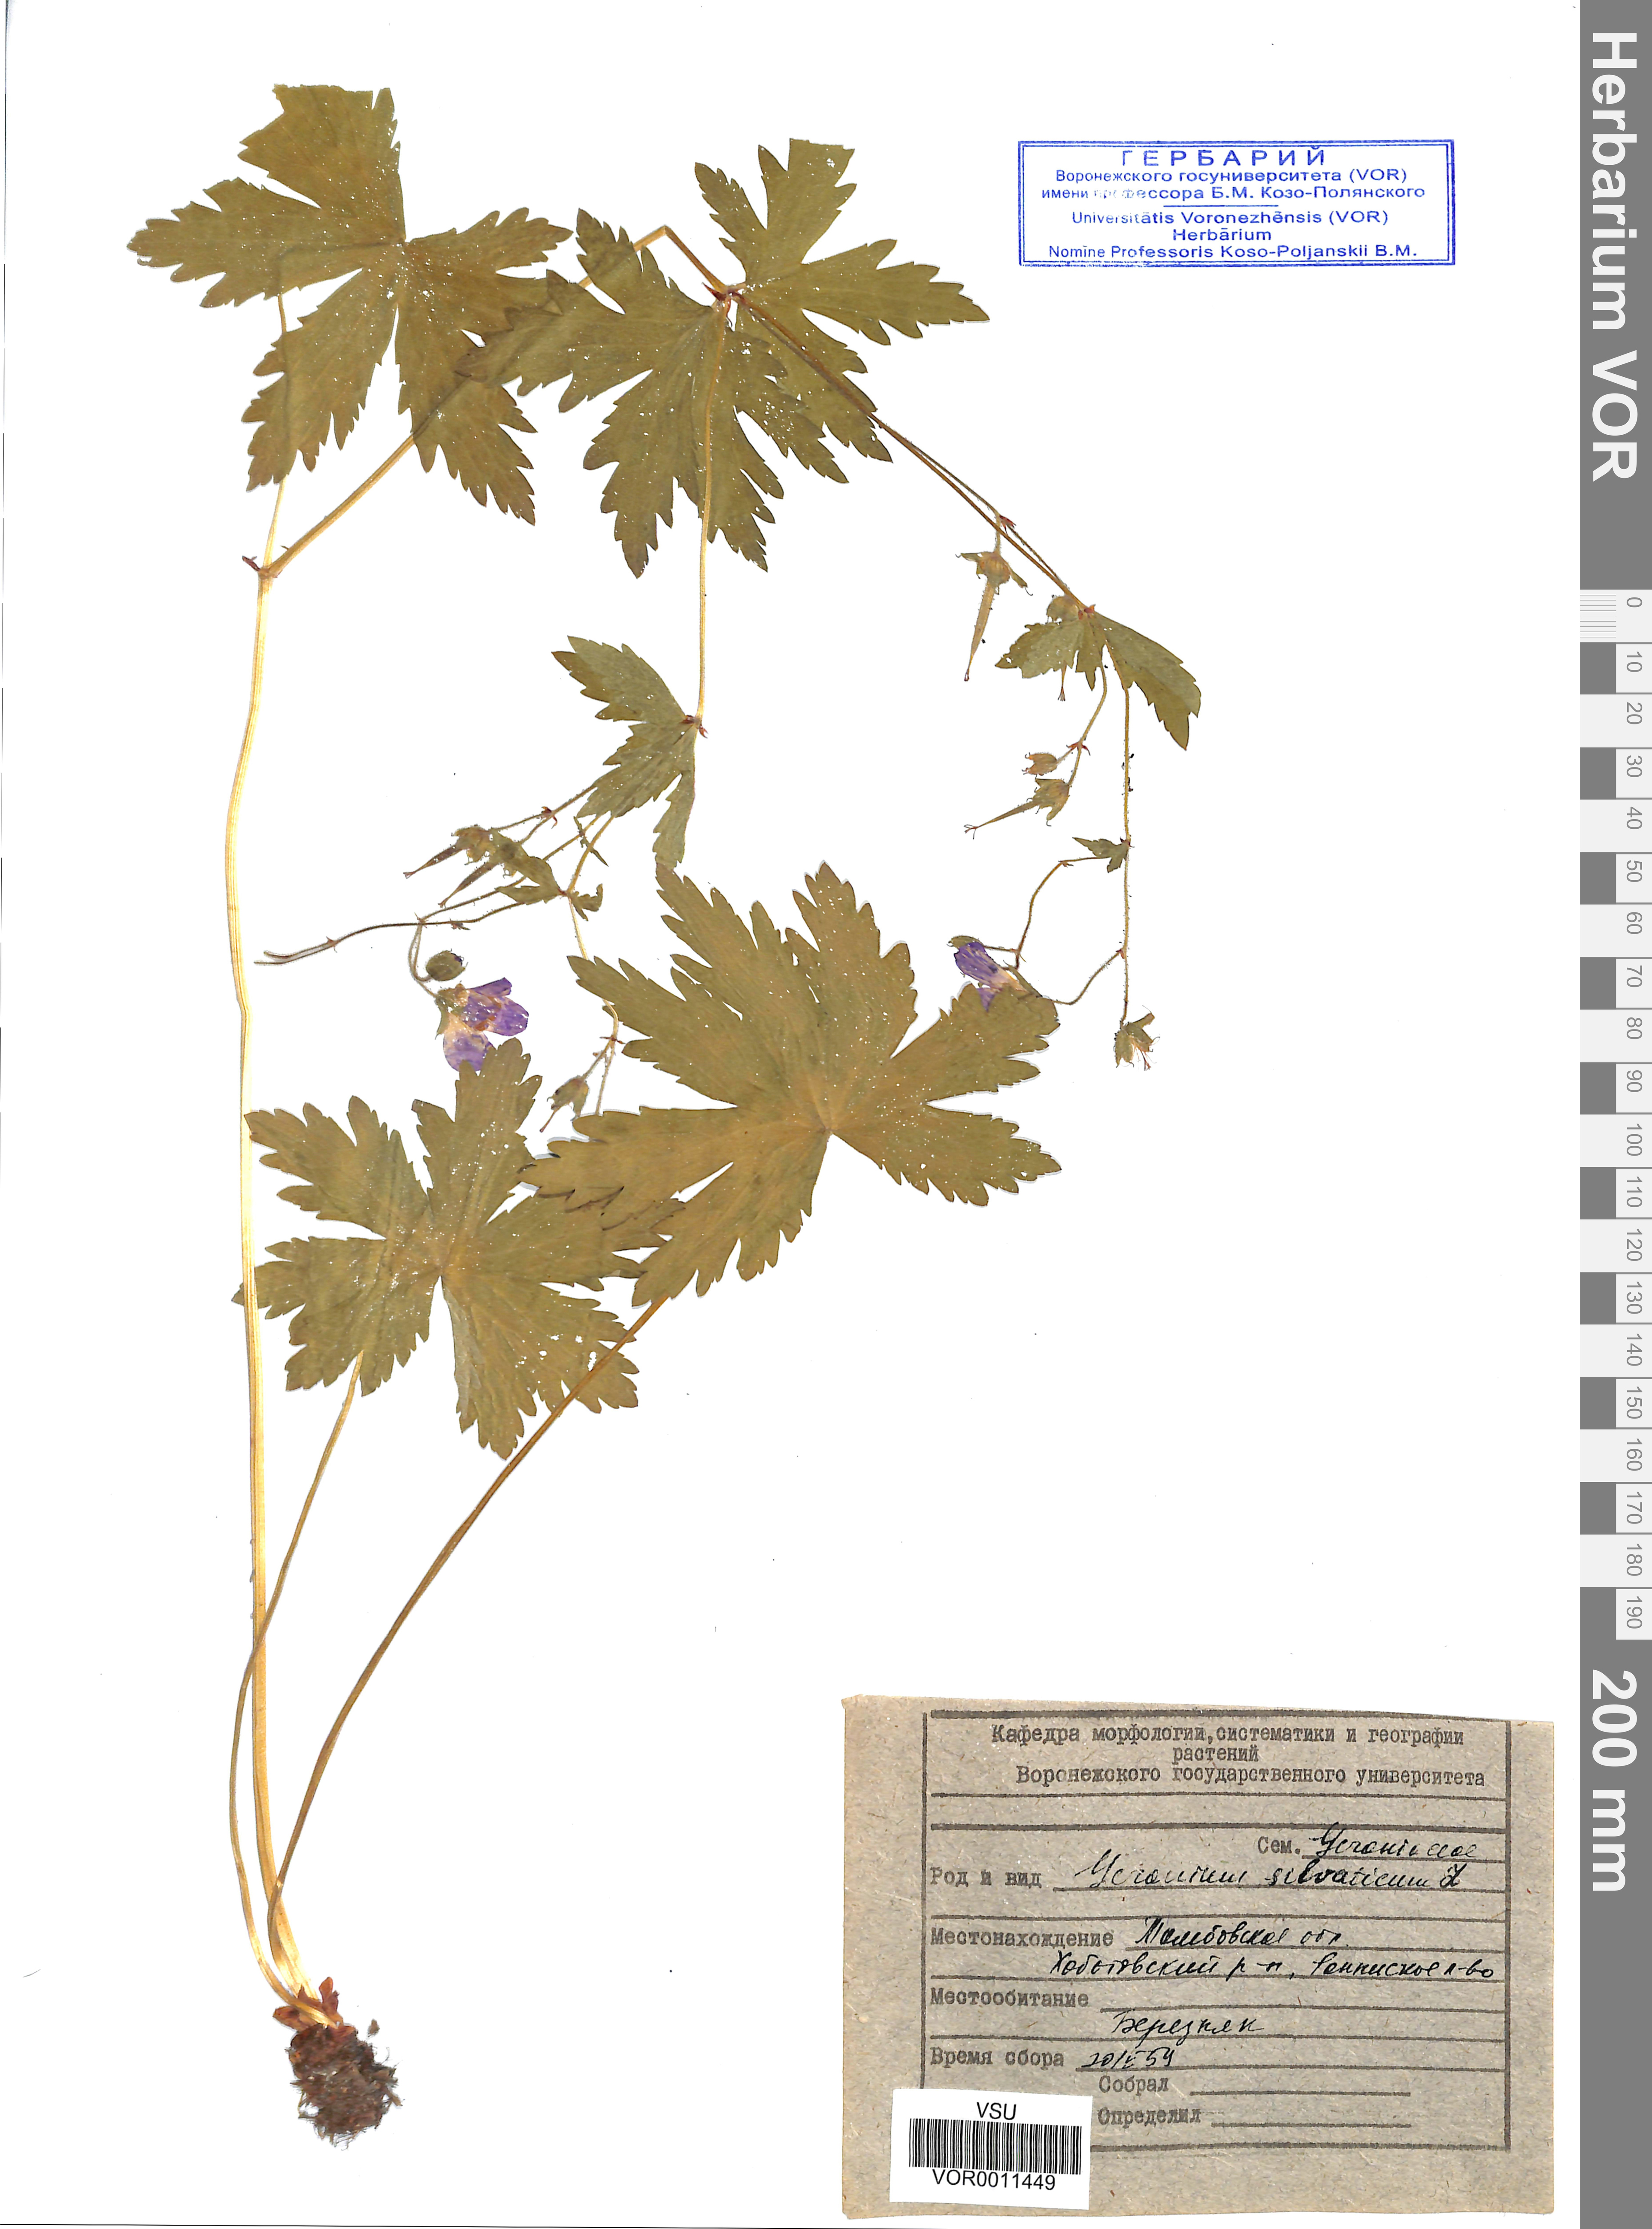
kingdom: Plantae
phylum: Tracheophyta
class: Magnoliopsida
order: Geraniales
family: Geraniaceae
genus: Geranium
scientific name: Geranium sibiricum
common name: Siberian crane's-bill
